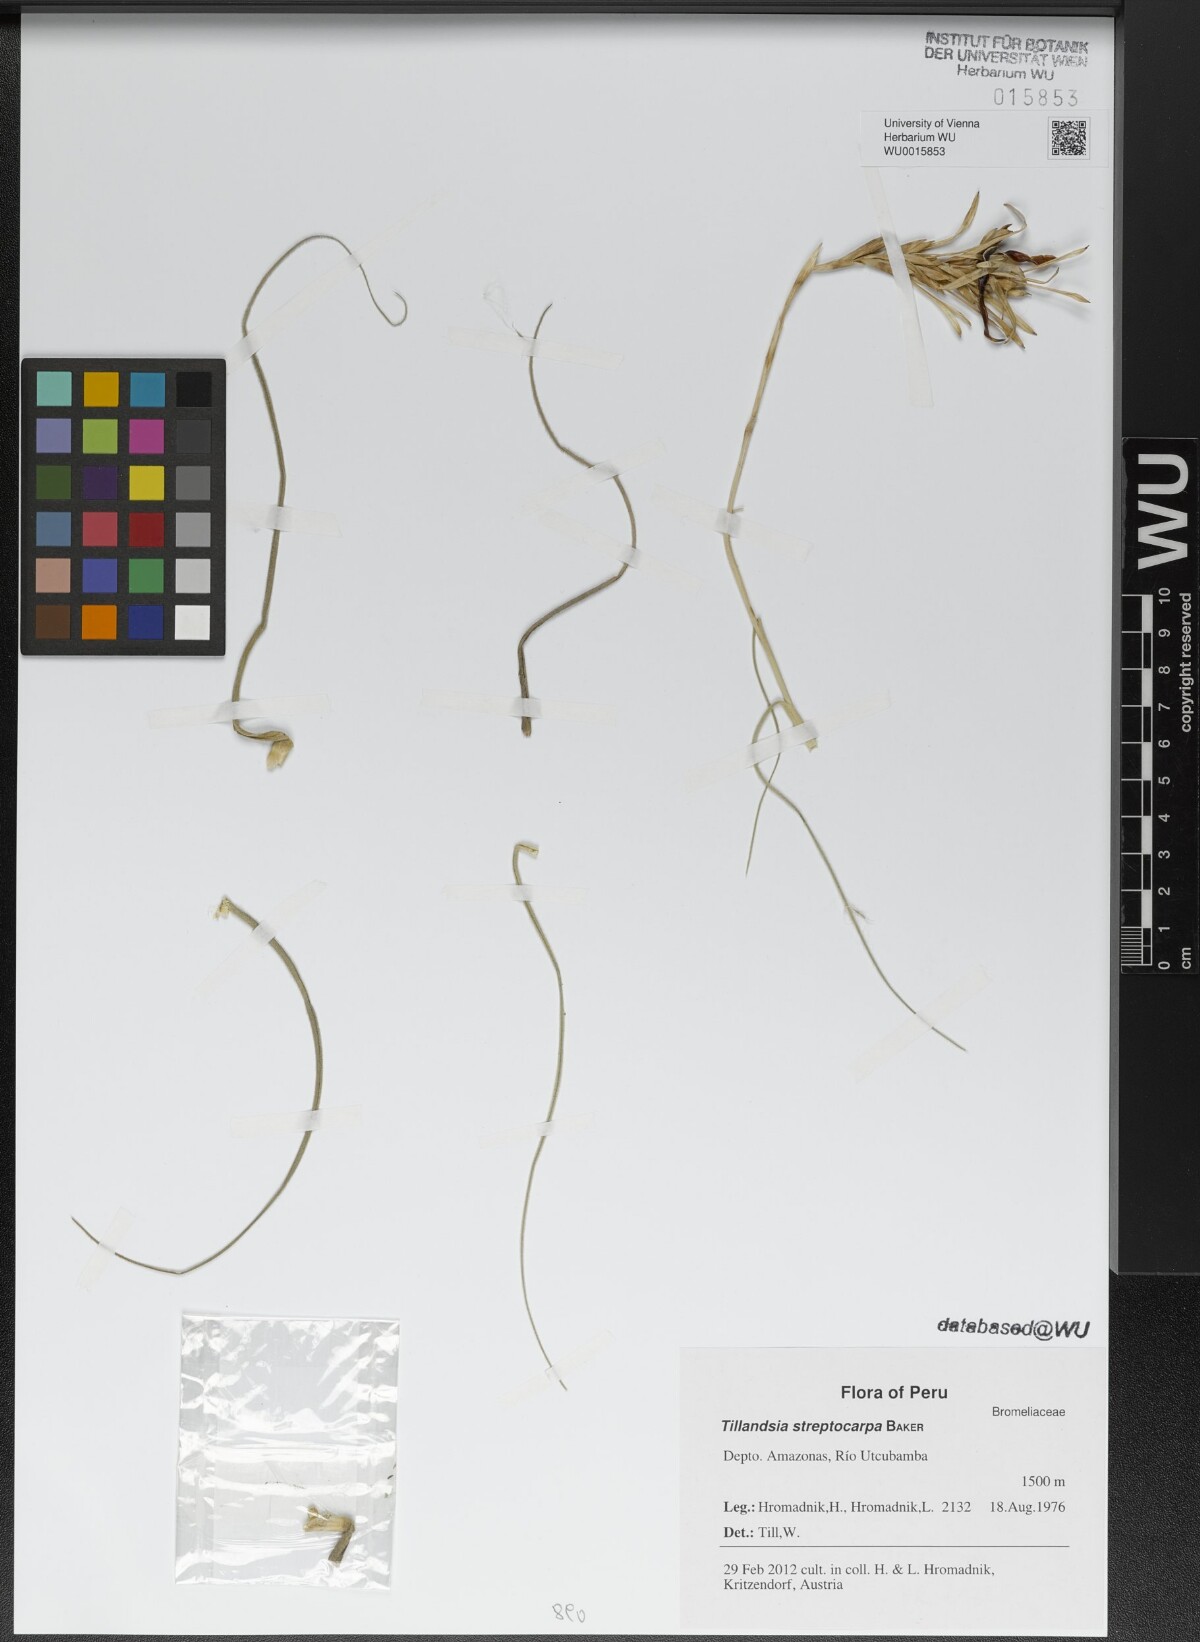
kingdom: Plantae
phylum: Tracheophyta
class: Liliopsida
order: Poales
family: Bromeliaceae
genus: Tillandsia
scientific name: Tillandsia streptocarpa
